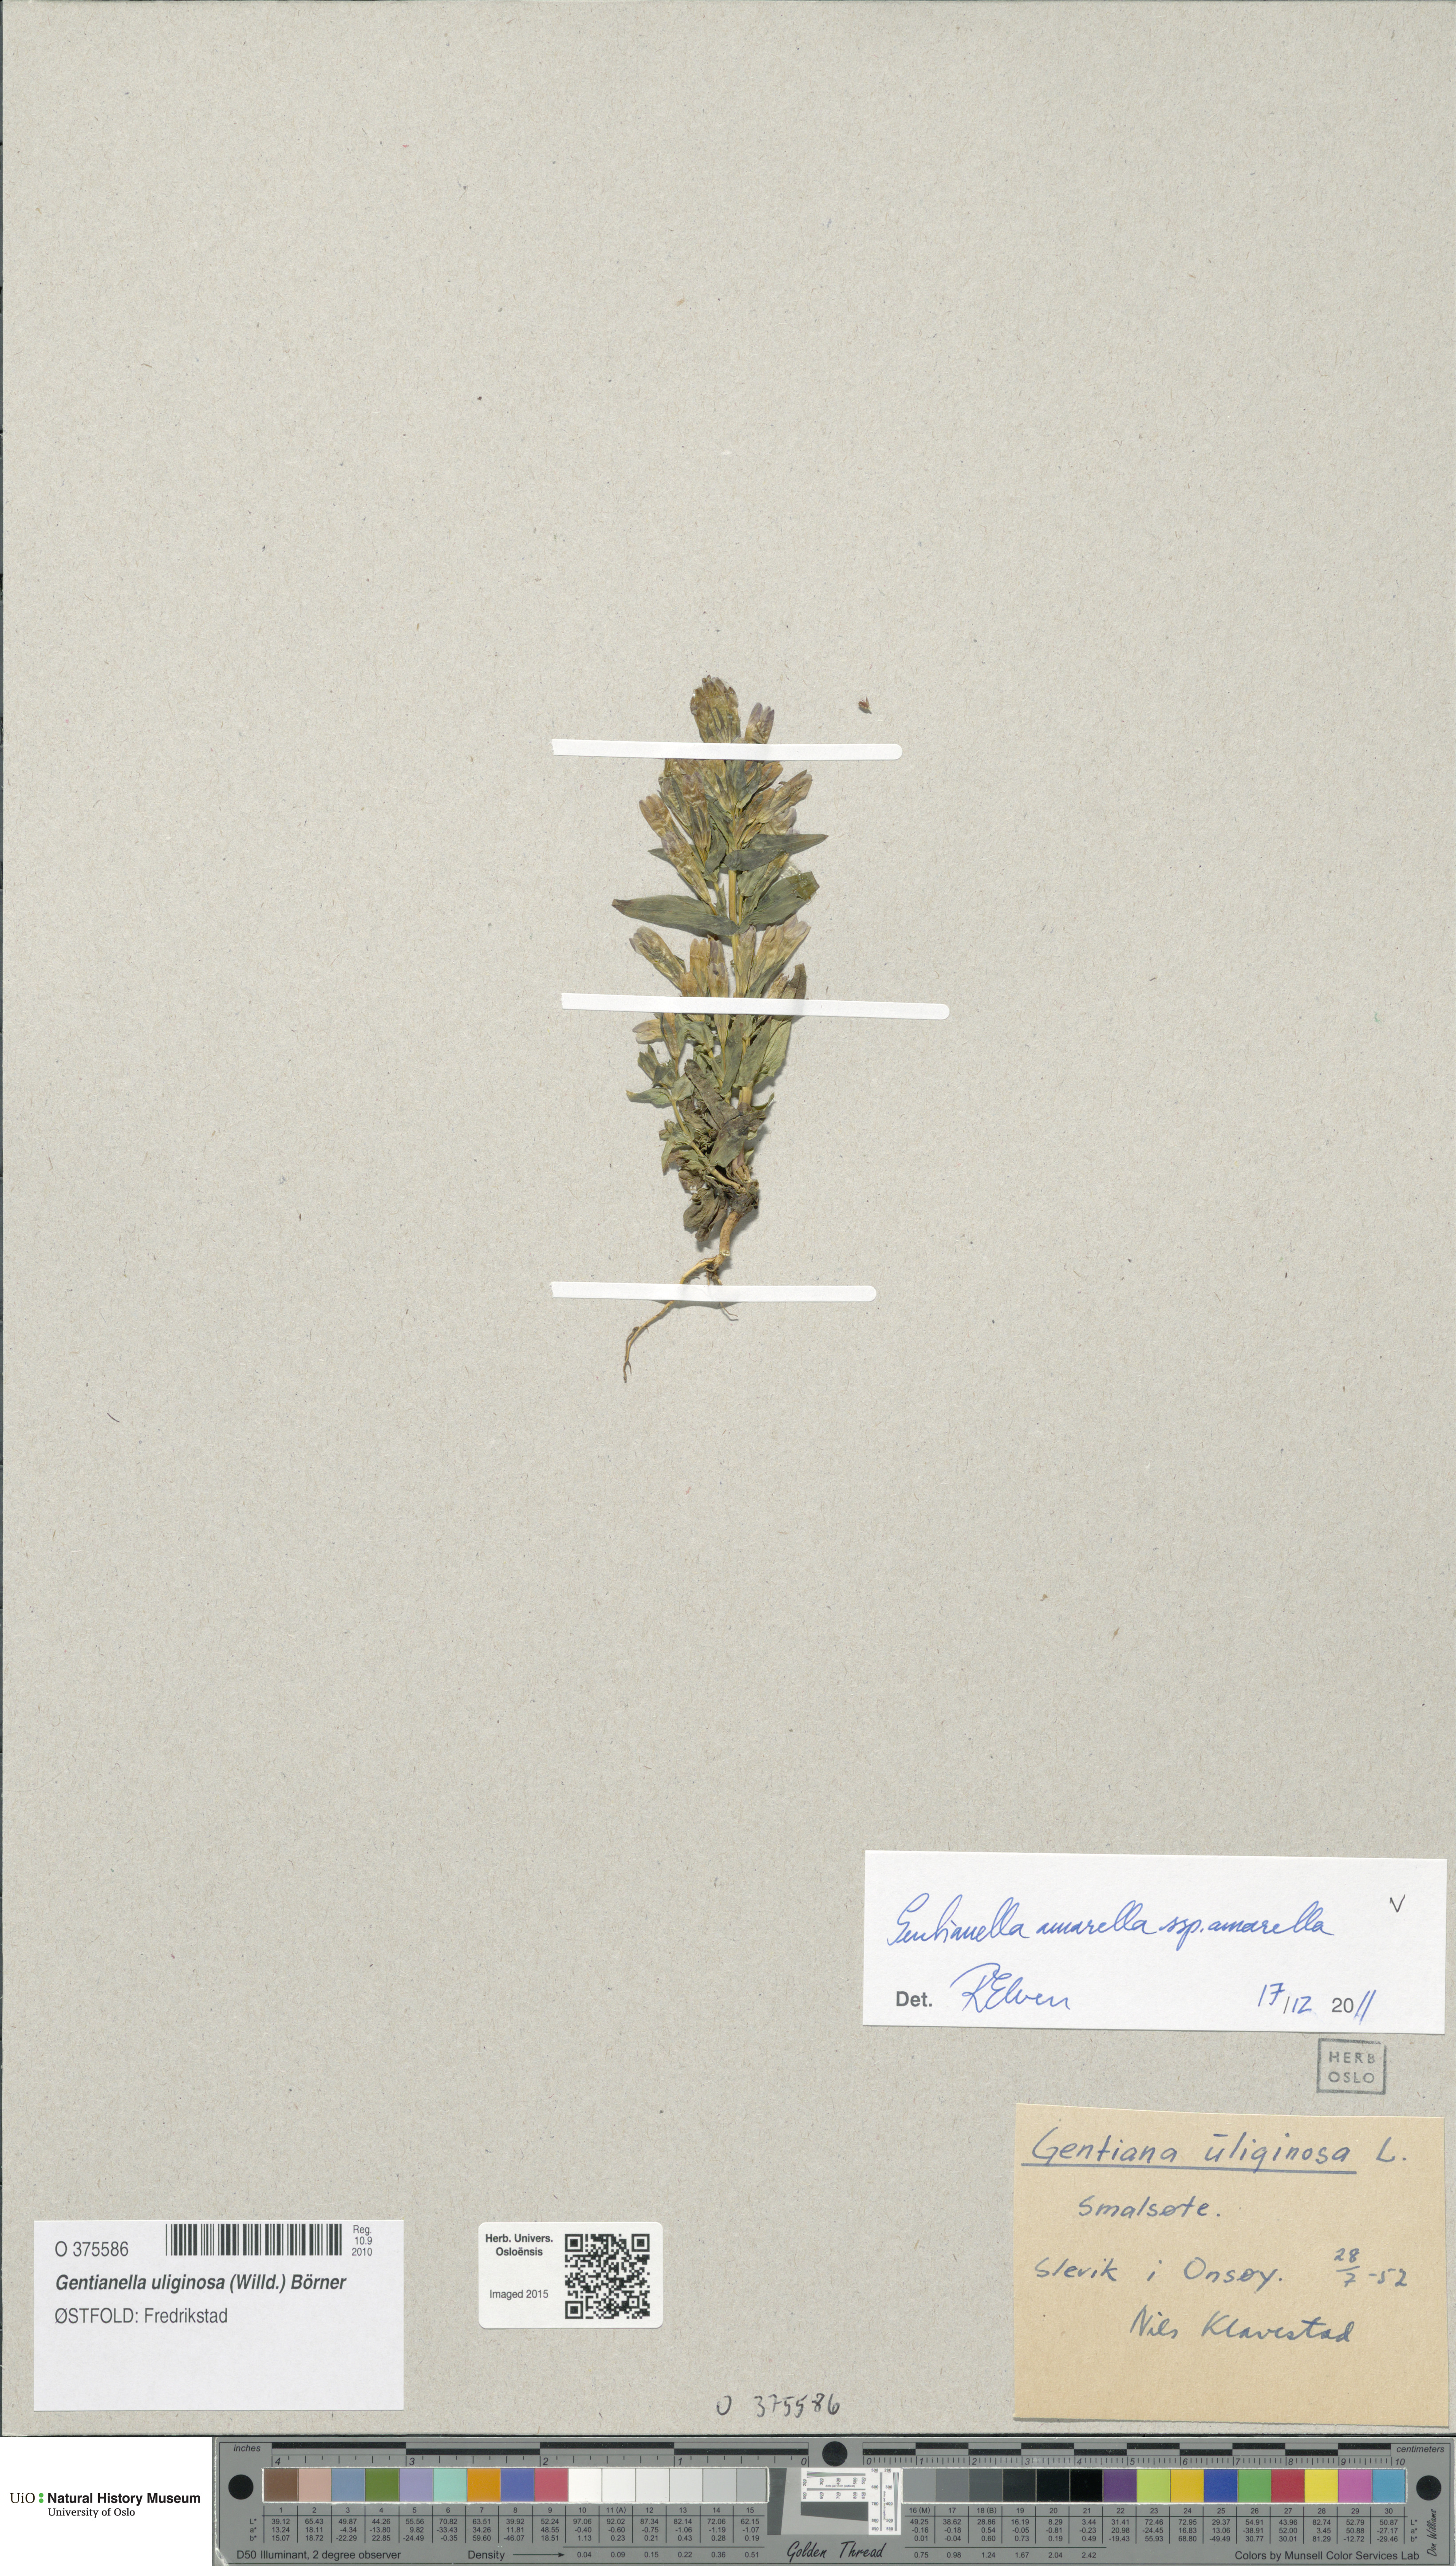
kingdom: Plantae
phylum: Tracheophyta
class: Magnoliopsida
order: Gentianales
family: Gentianaceae
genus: Gentianella
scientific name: Gentianella amarella
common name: Autumn gentian
